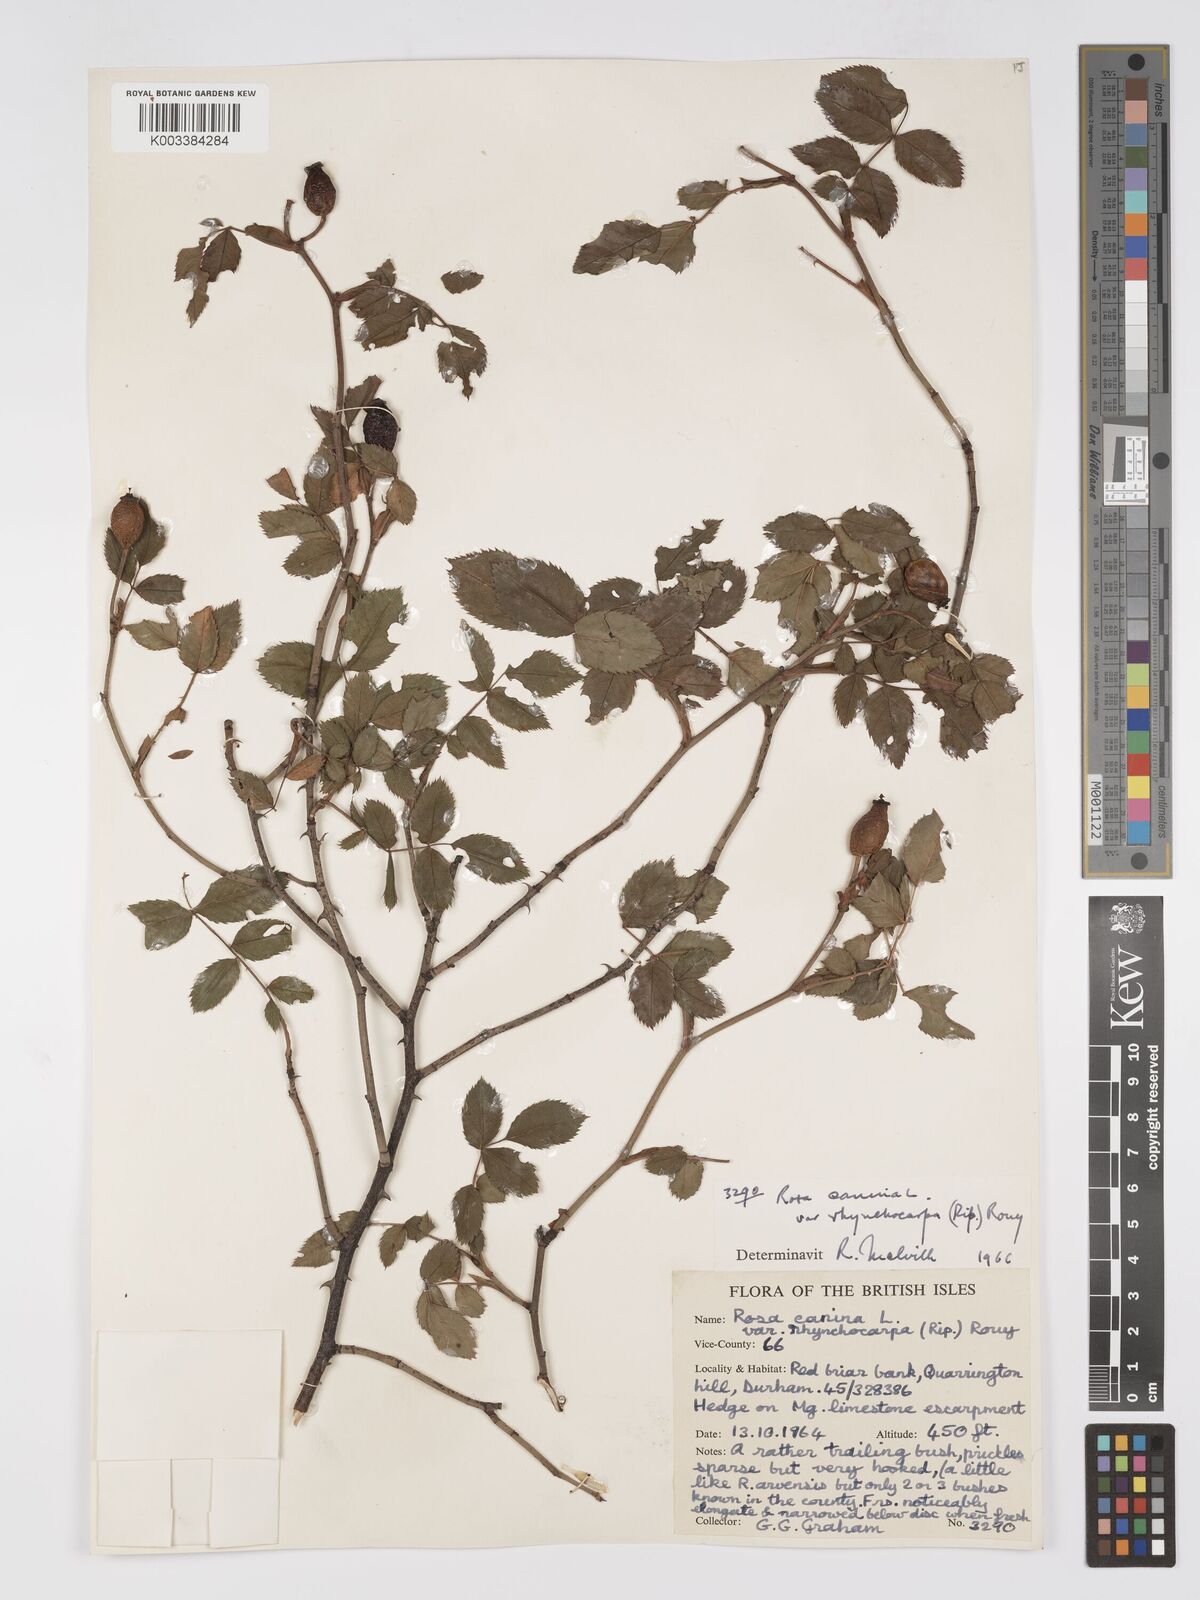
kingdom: Plantae
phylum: Tracheophyta
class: Magnoliopsida
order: Rosales
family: Rosaceae
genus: Rosa
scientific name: Rosa canina
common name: Dog rose
